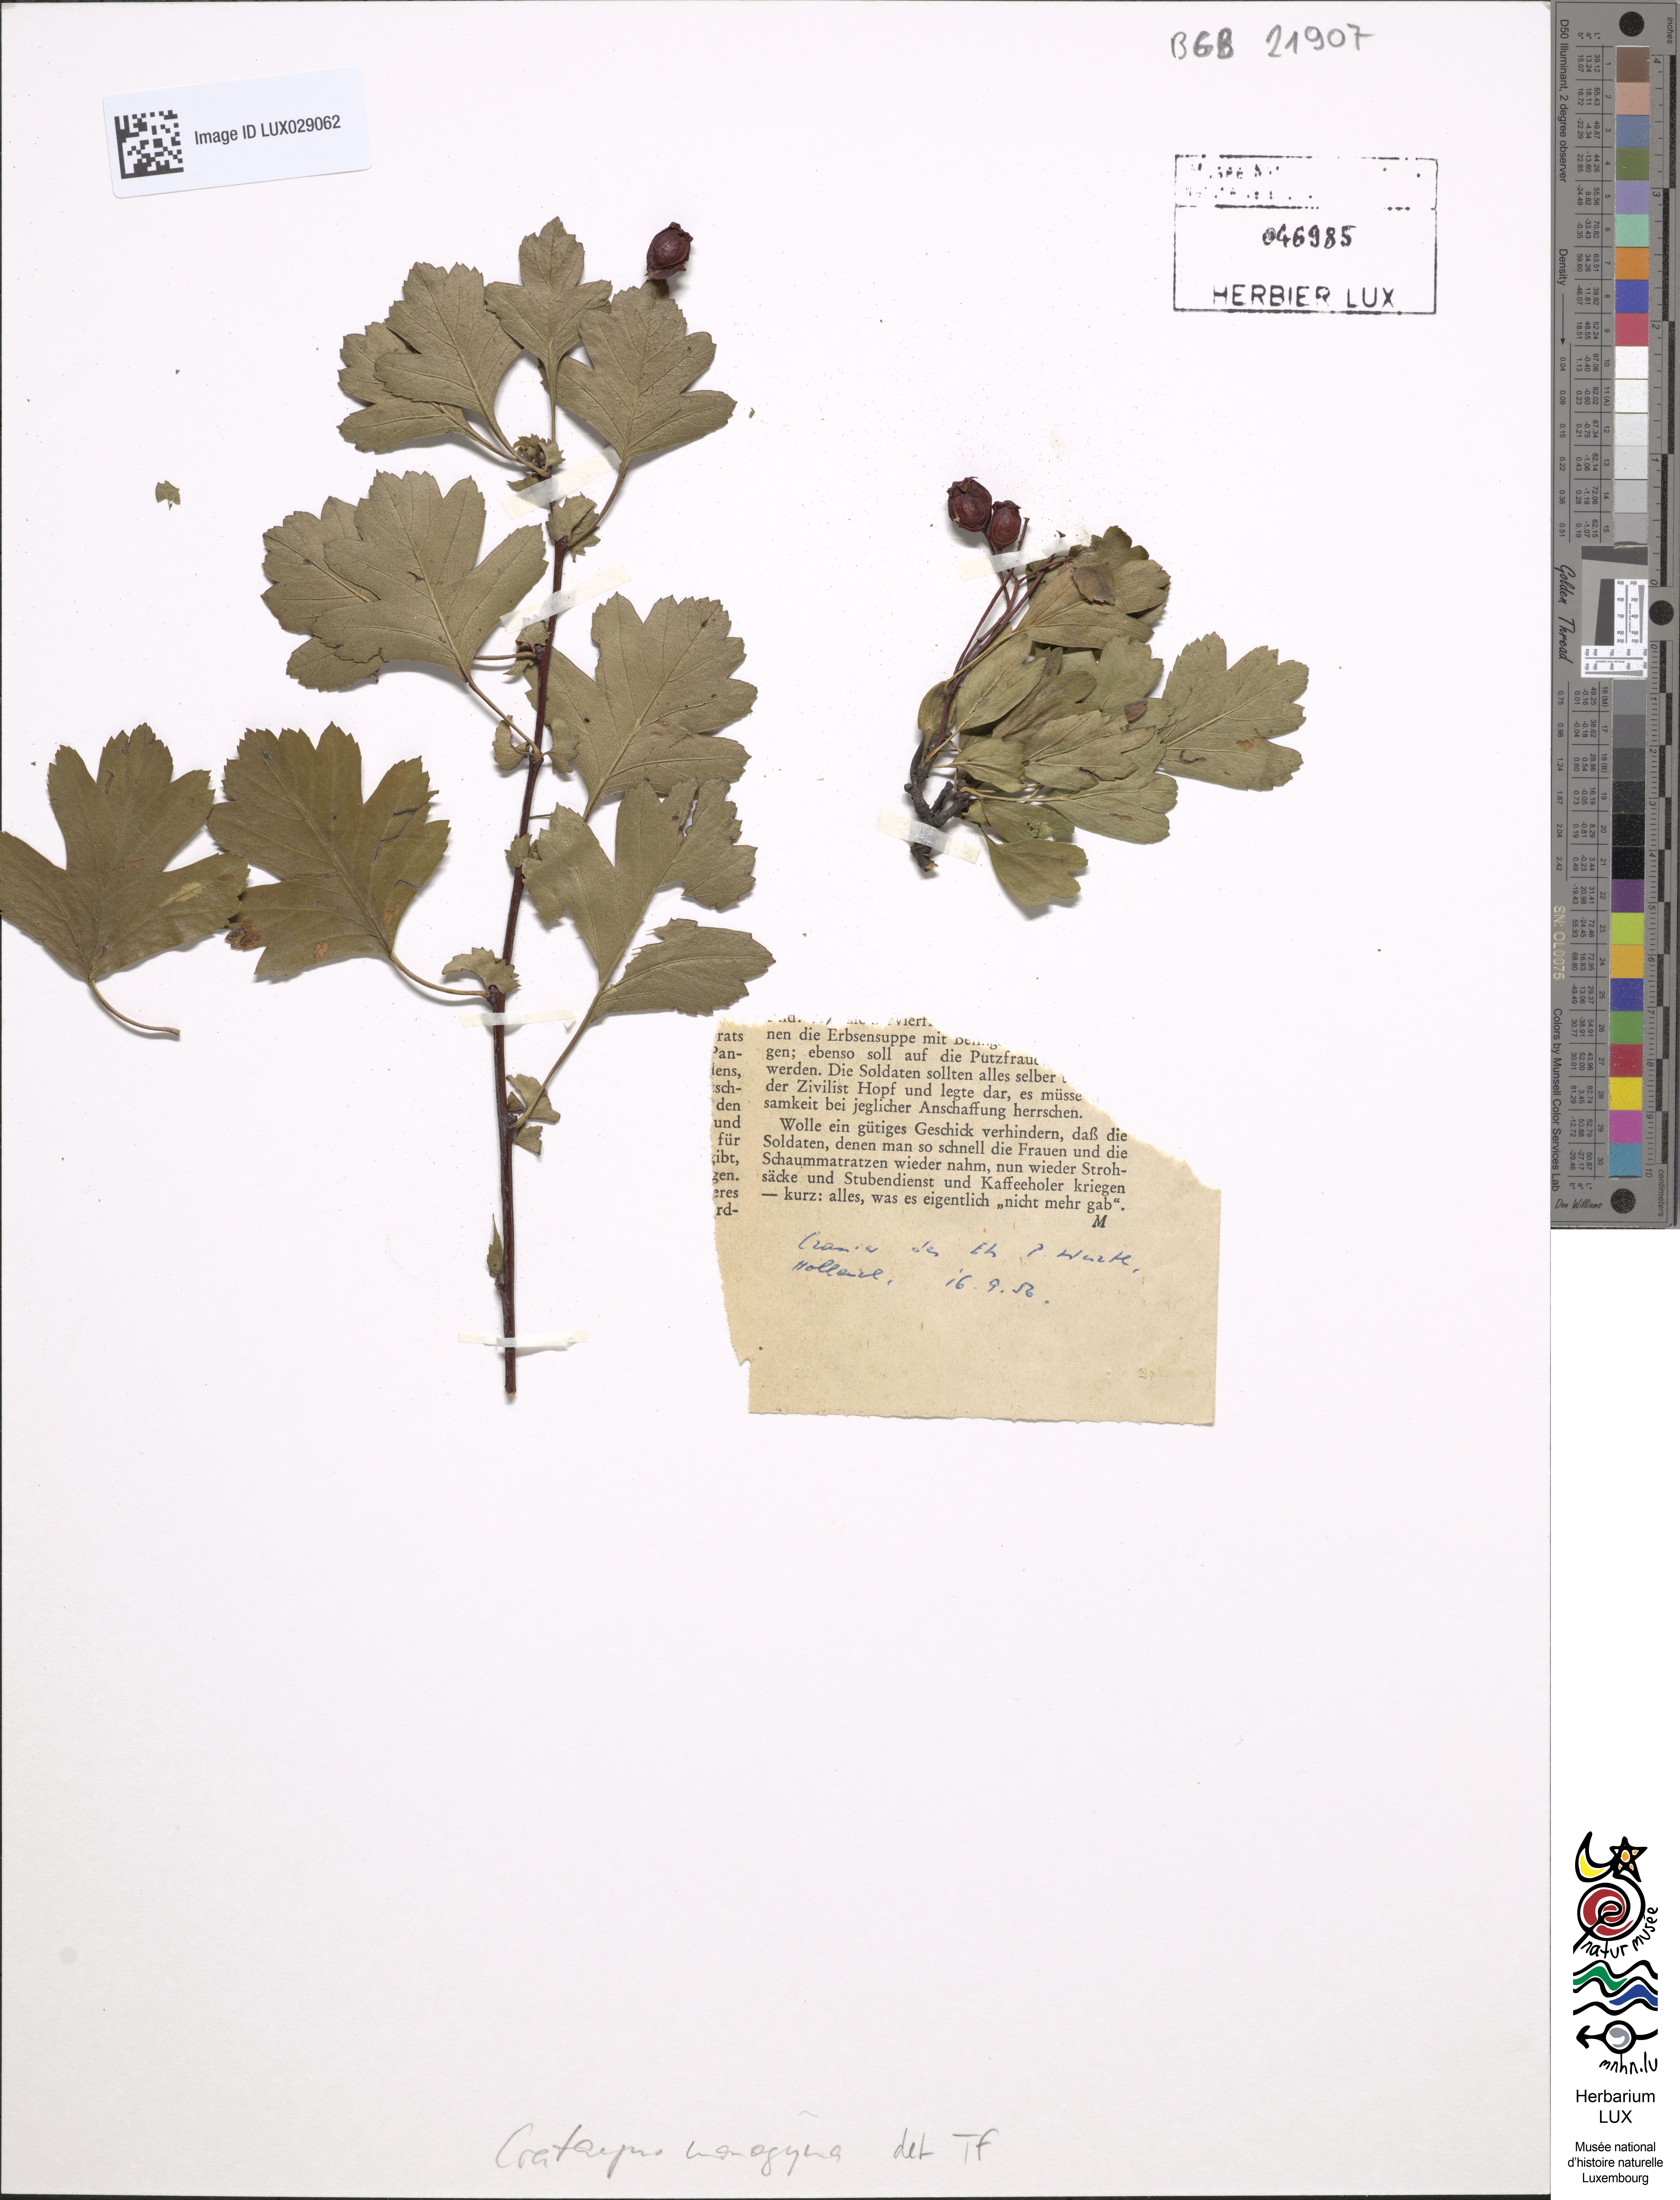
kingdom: Plantae
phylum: Tracheophyta
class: Magnoliopsida
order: Rosales
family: Rosaceae
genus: Crataegus
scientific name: Crataegus monogyna
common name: Hawthorn
